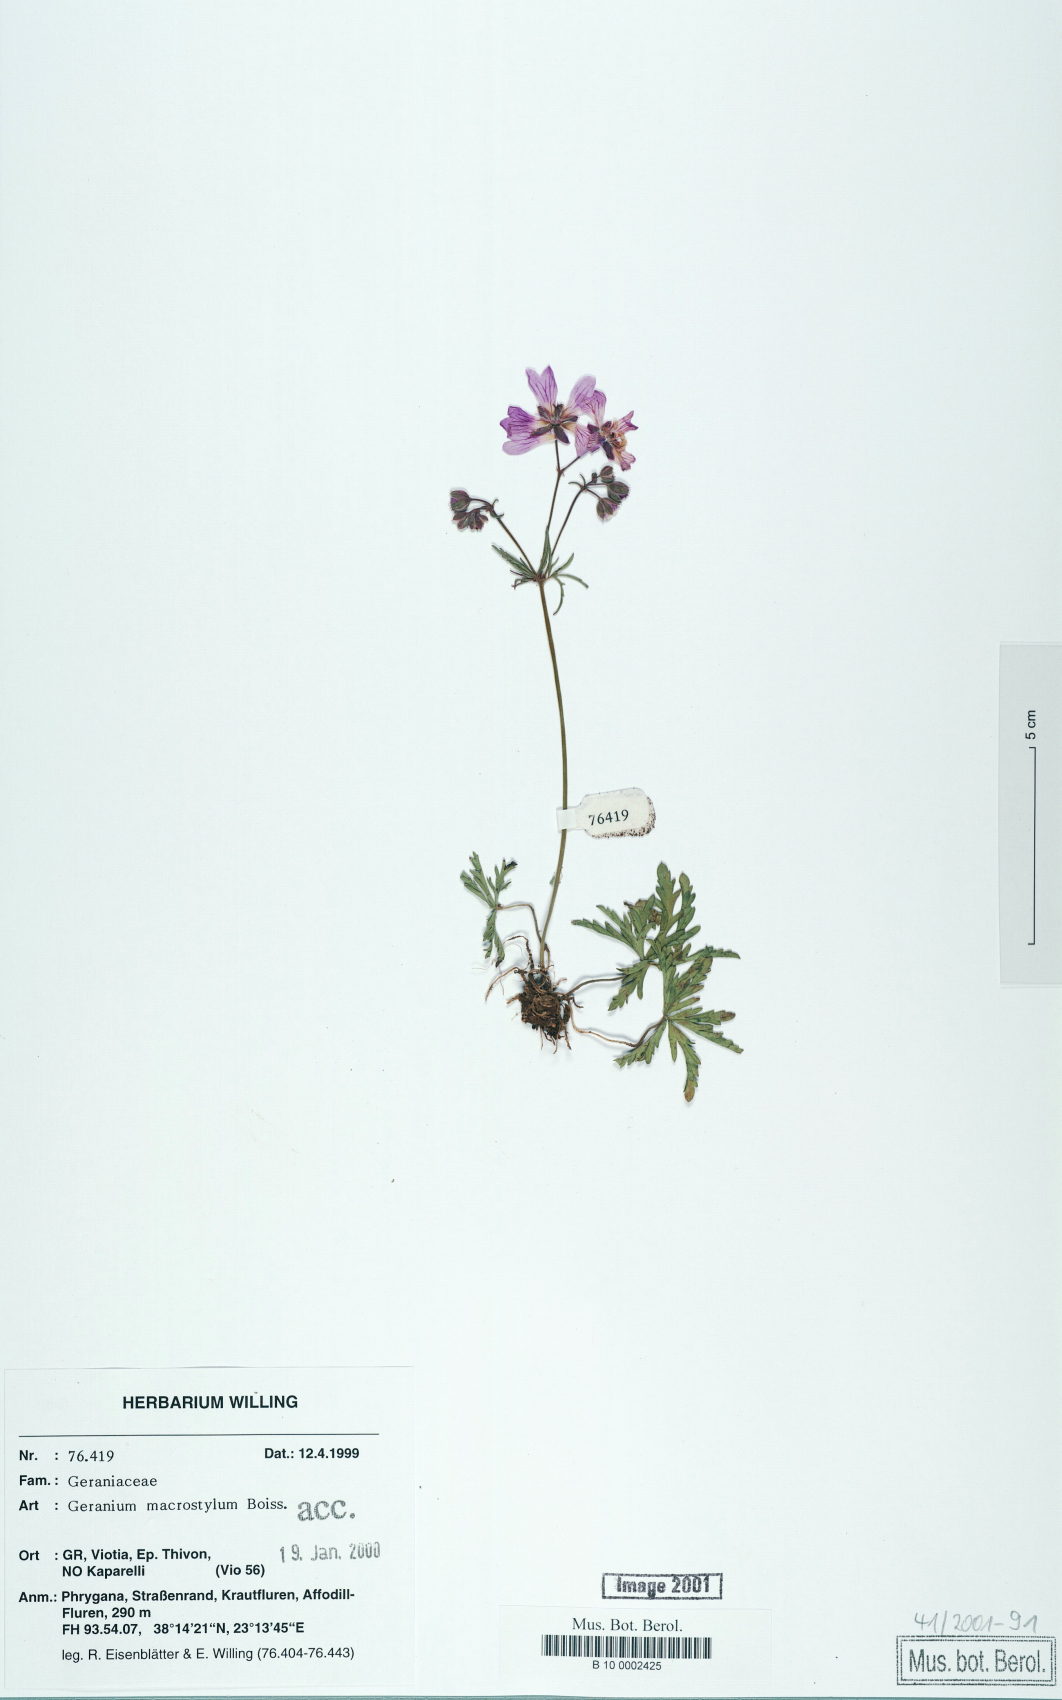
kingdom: Plantae
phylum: Tracheophyta
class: Magnoliopsida
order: Geraniales
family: Geraniaceae
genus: Geranium
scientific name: Geranium macrostylum
